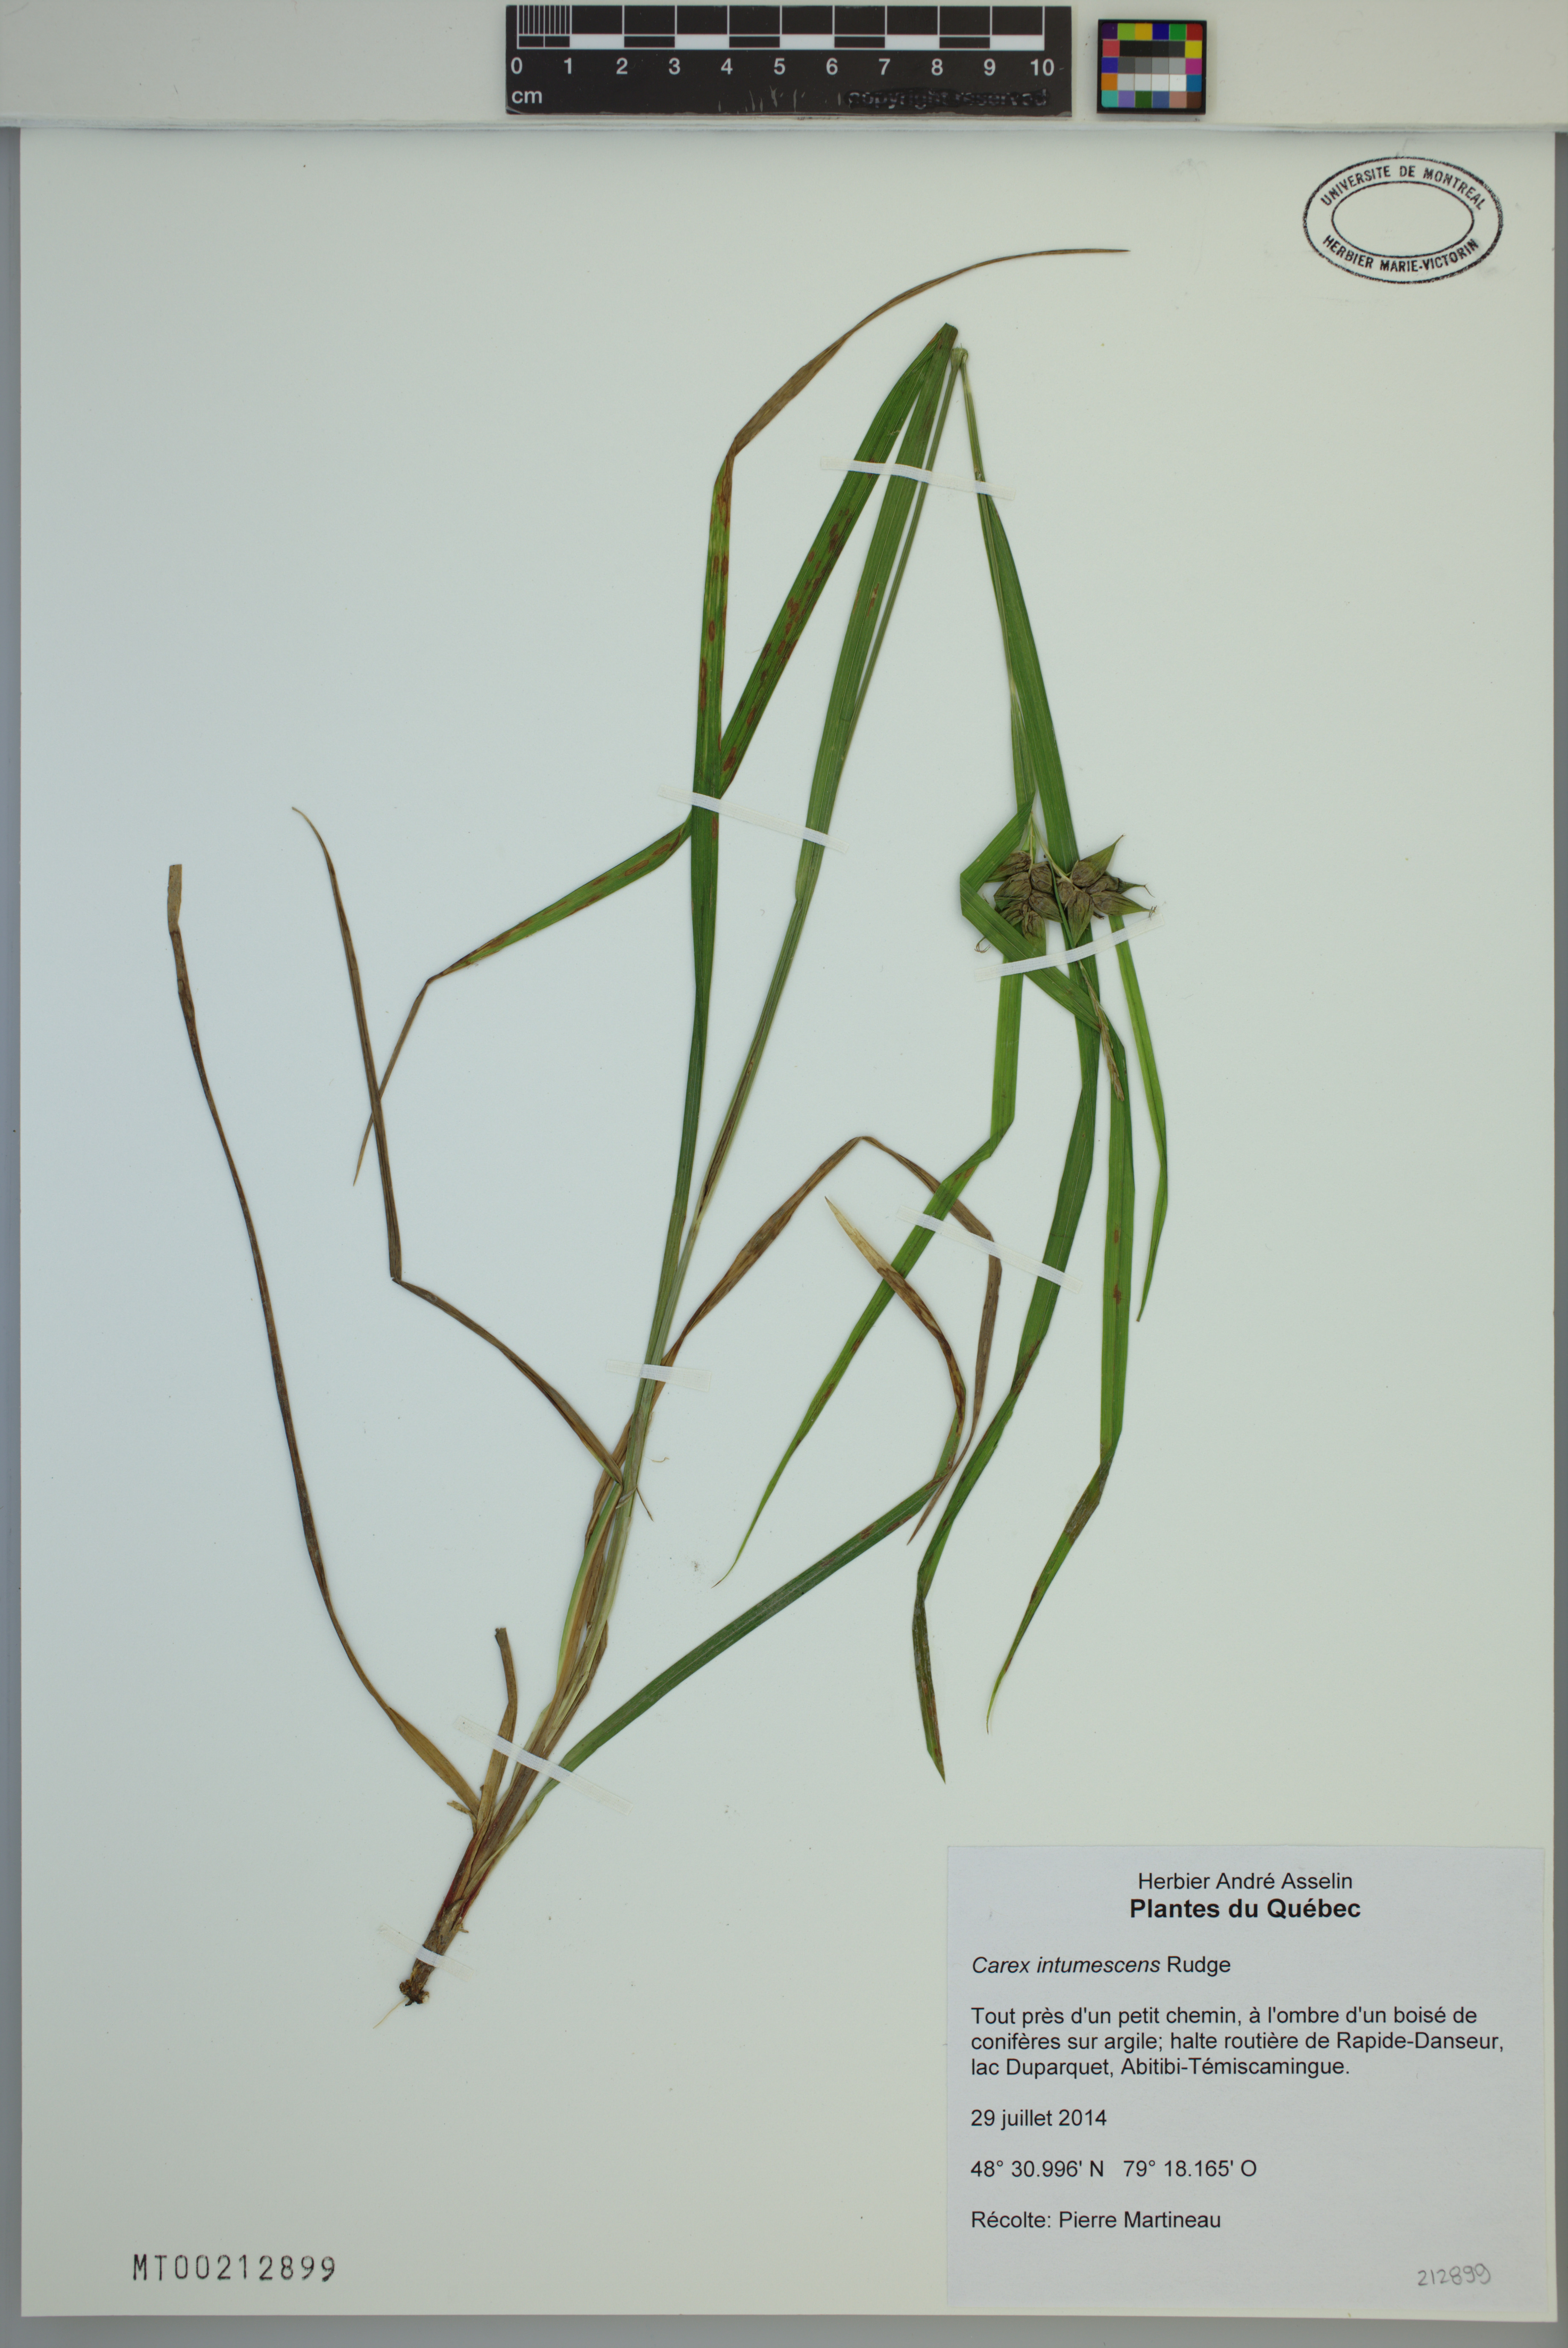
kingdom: Plantae
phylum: Tracheophyta
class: Liliopsida
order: Poales
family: Cyperaceae
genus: Carex
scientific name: Carex intumescens
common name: Greater bladder sedge
